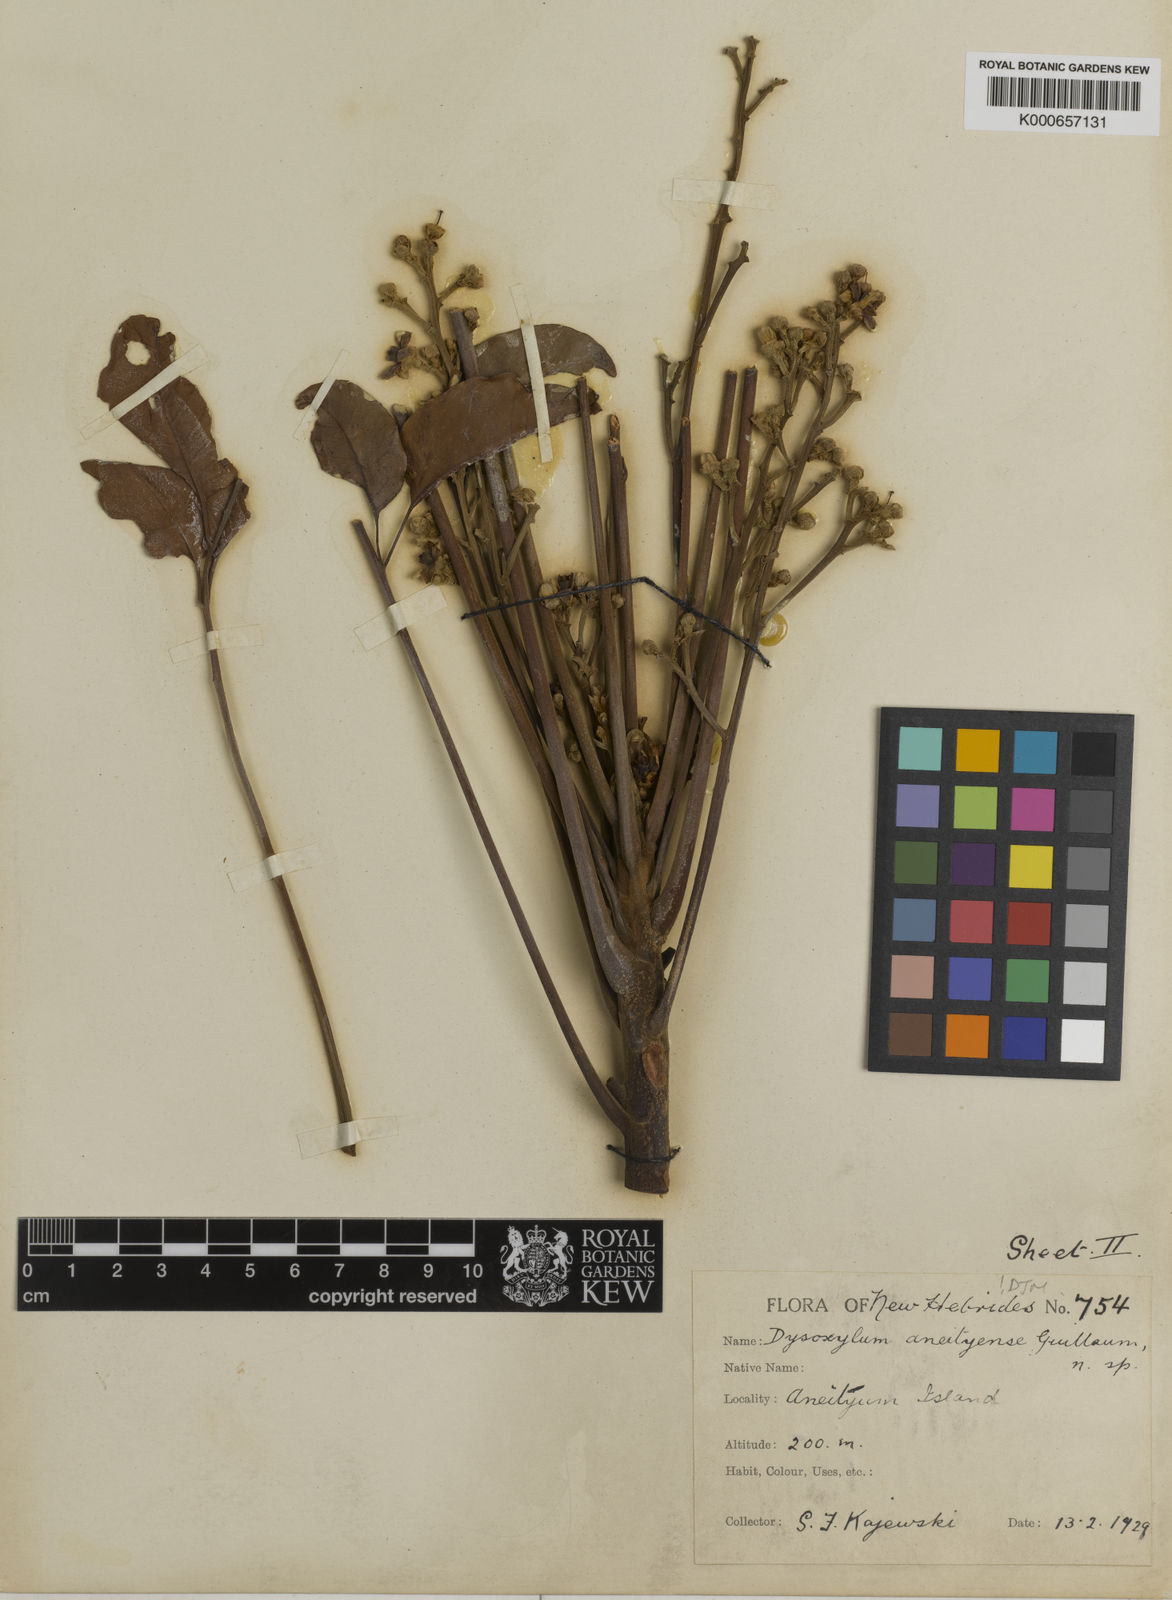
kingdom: Plantae
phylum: Tracheophyta
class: Magnoliopsida
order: Sapindales
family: Meliaceae
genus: Didymocheton
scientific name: Didymocheton aneityensis
